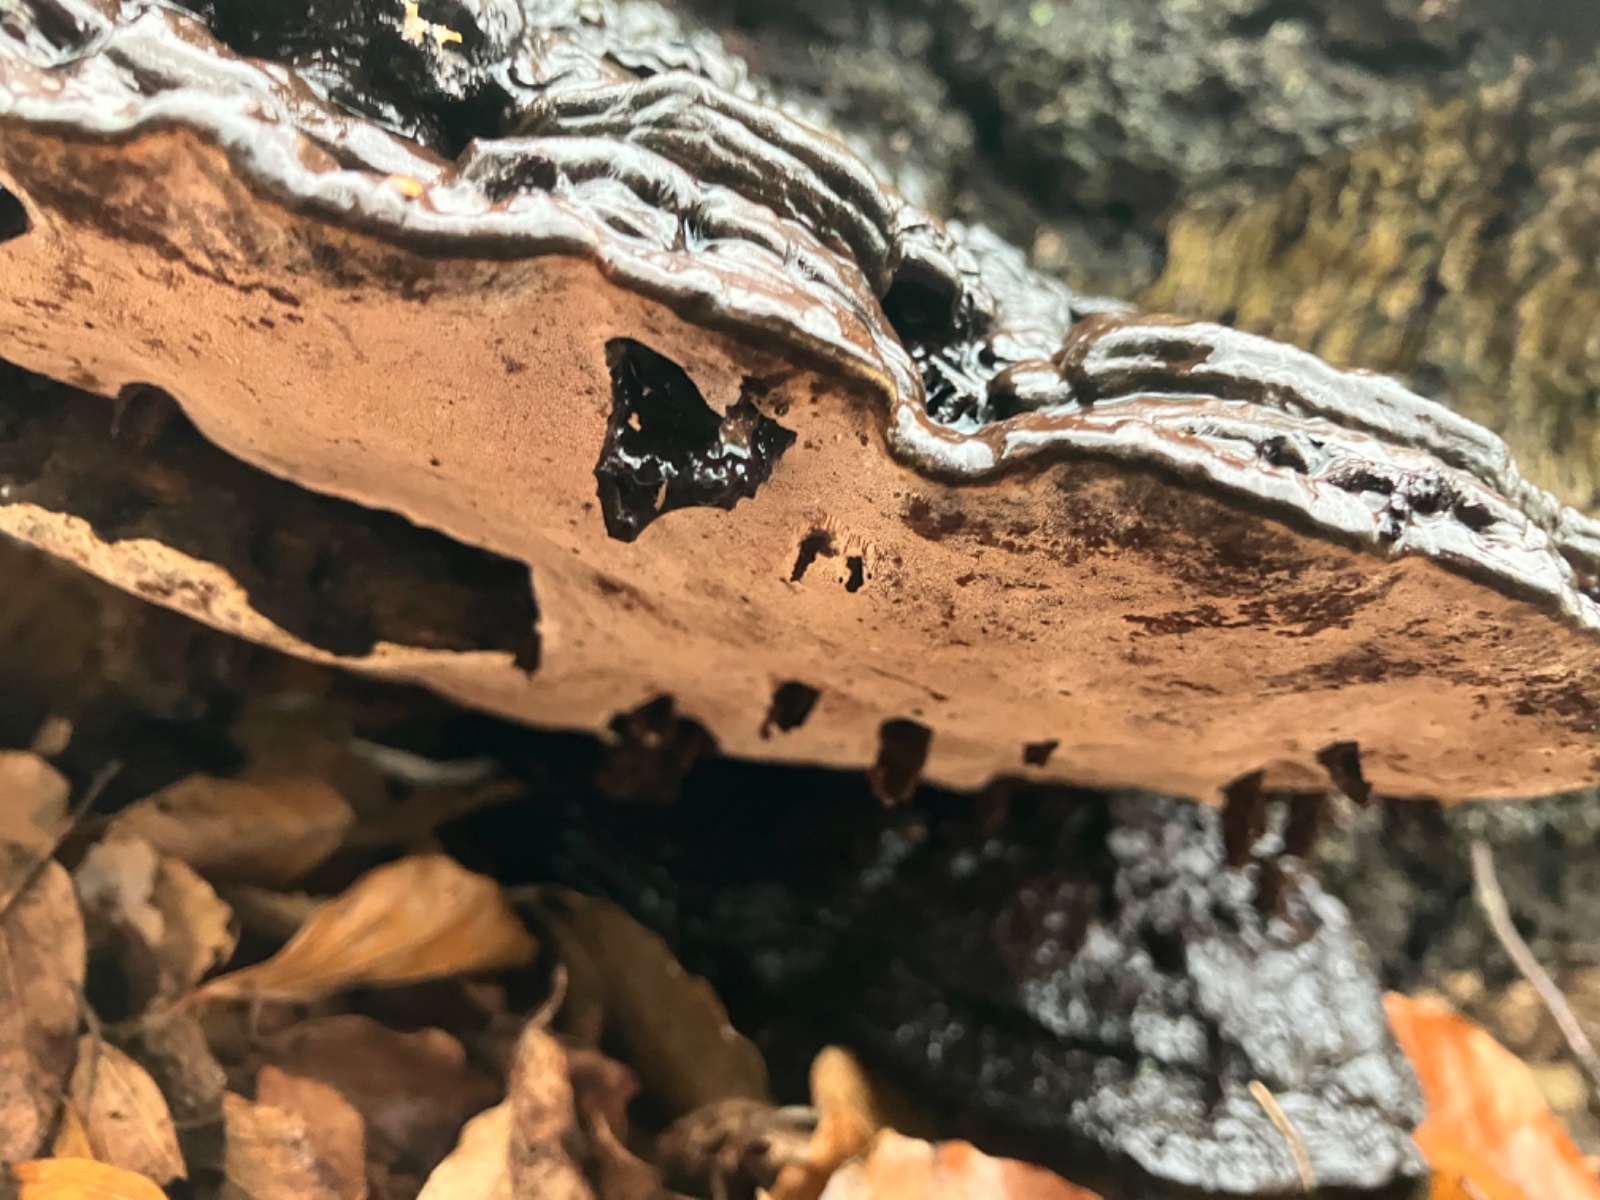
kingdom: Fungi
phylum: Basidiomycota
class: Agaricomycetes
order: Polyporales
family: Polyporaceae
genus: Ganoderma
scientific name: Ganoderma applanatum
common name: flad lakporesvamp
